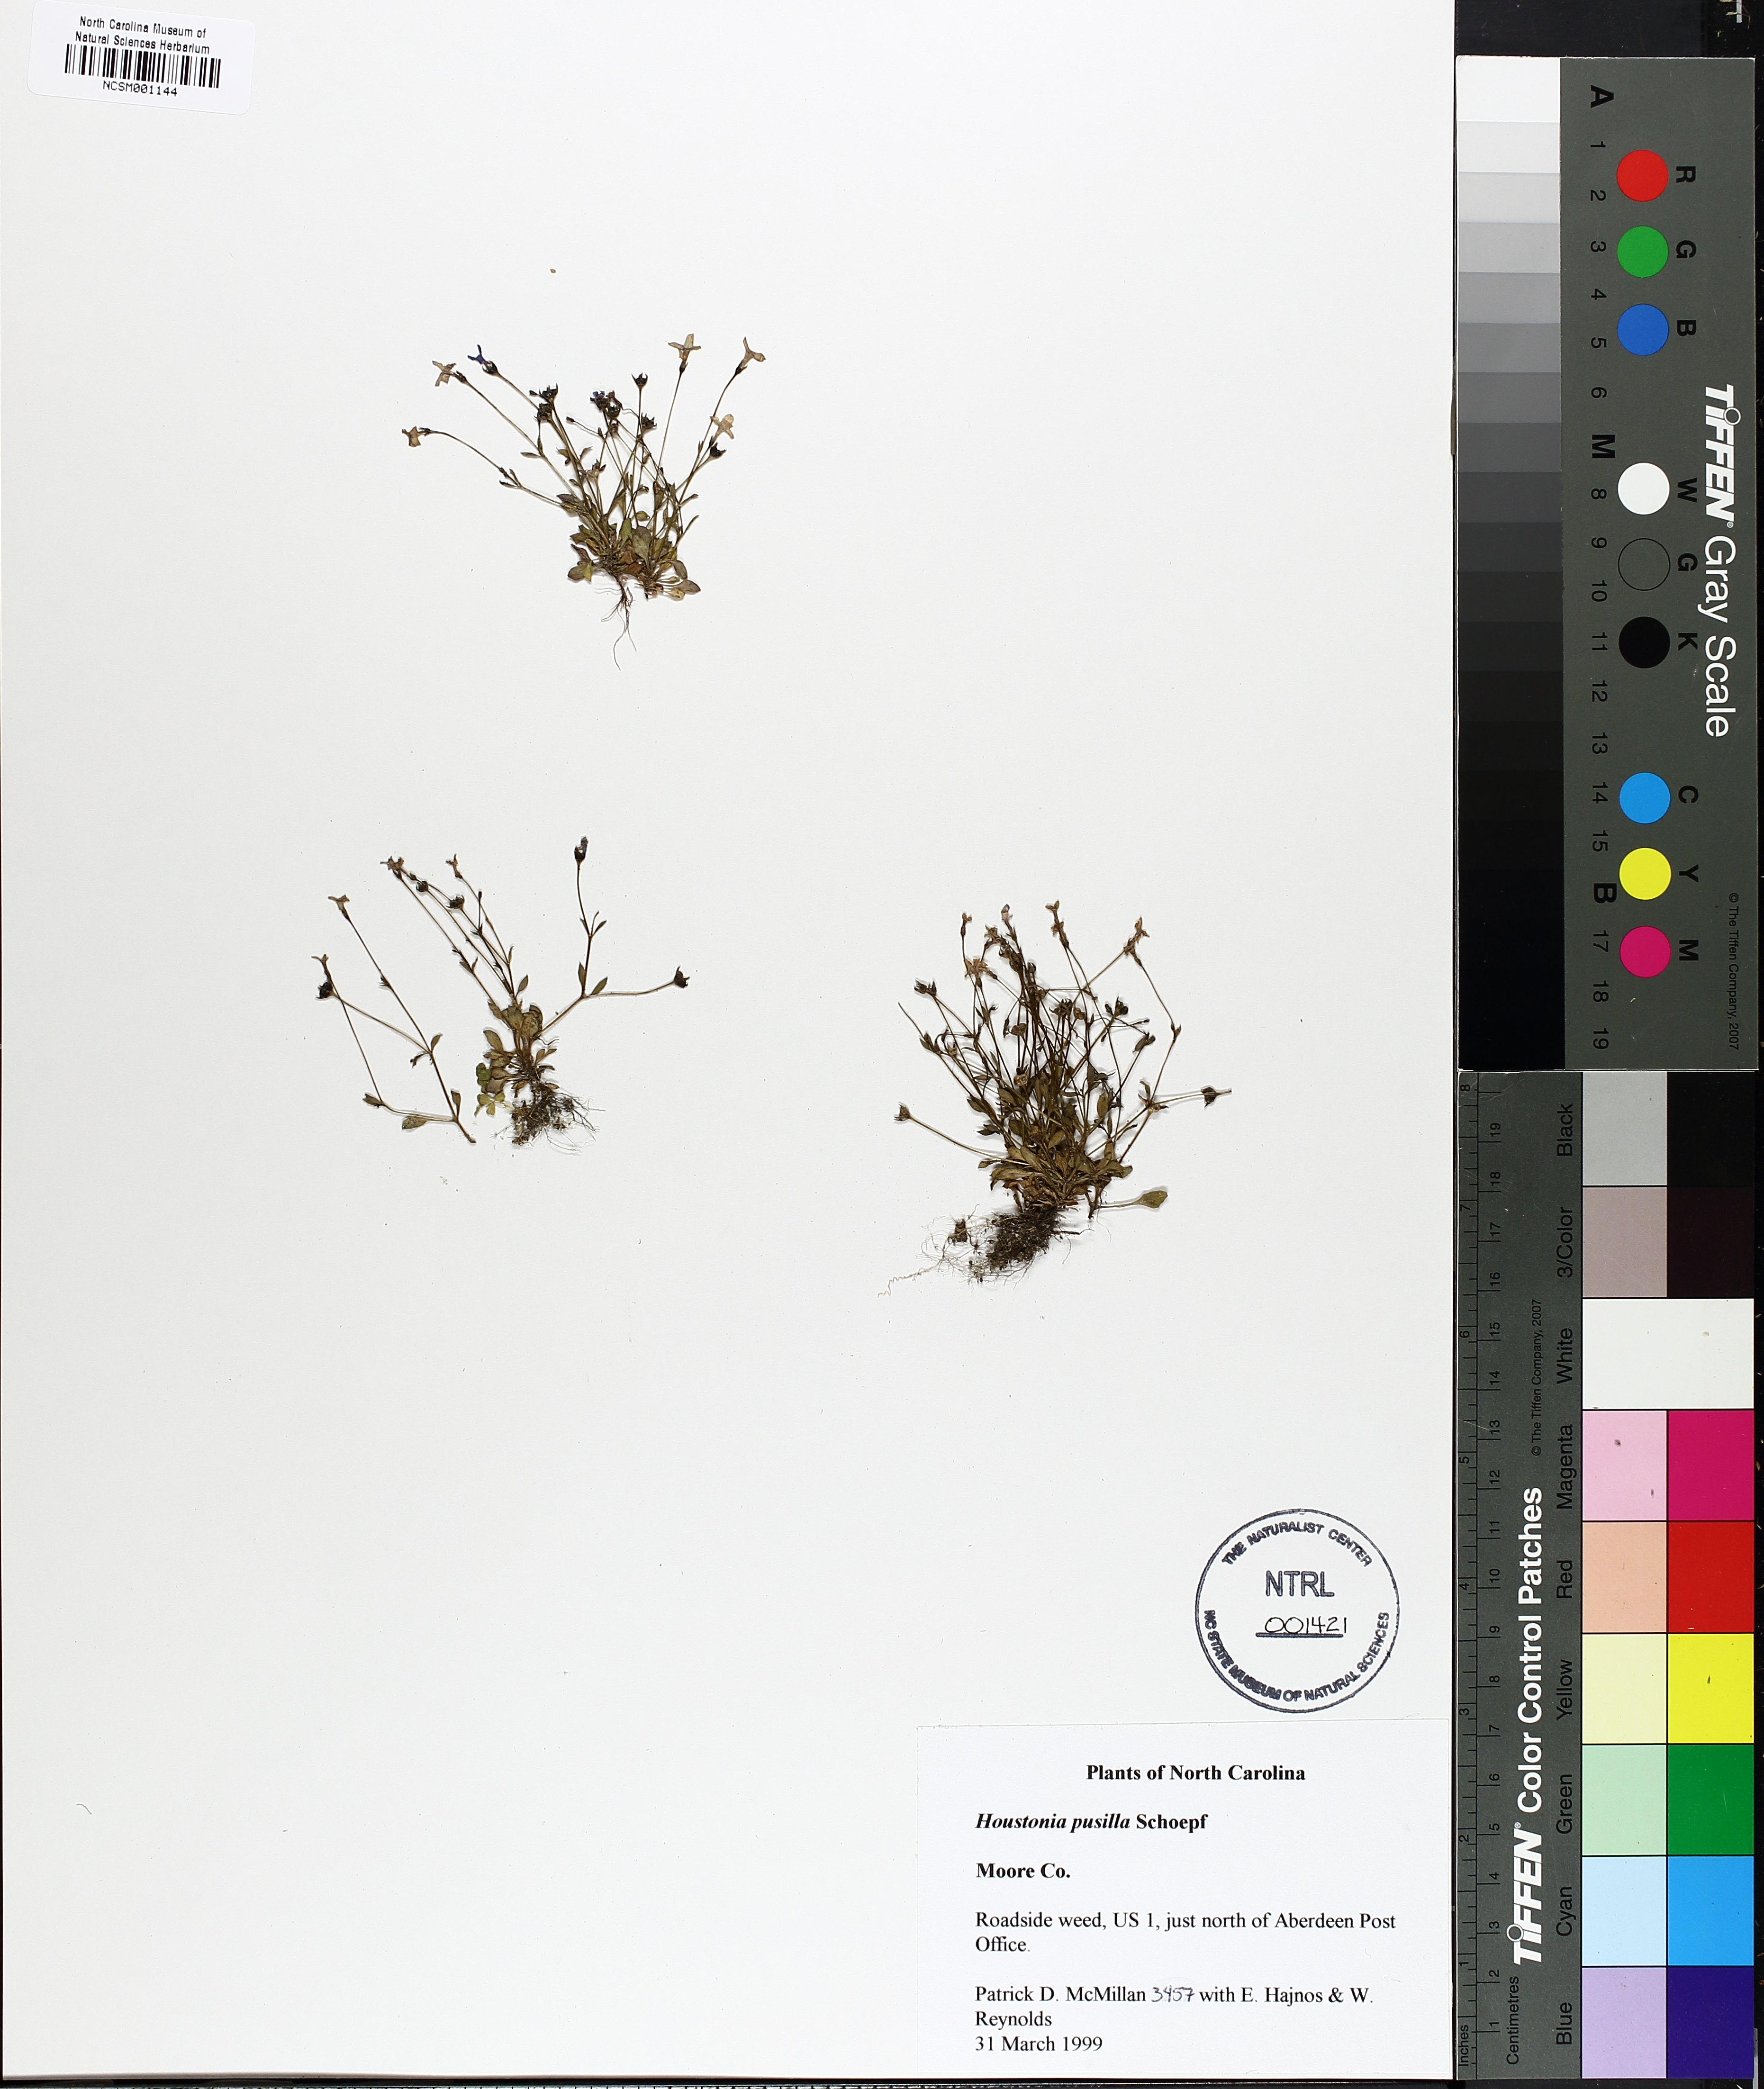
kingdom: Plantae
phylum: Tracheophyta
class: Magnoliopsida
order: Gentianales
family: Rubiaceae
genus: Houstonia
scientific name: Houstonia pusilla
